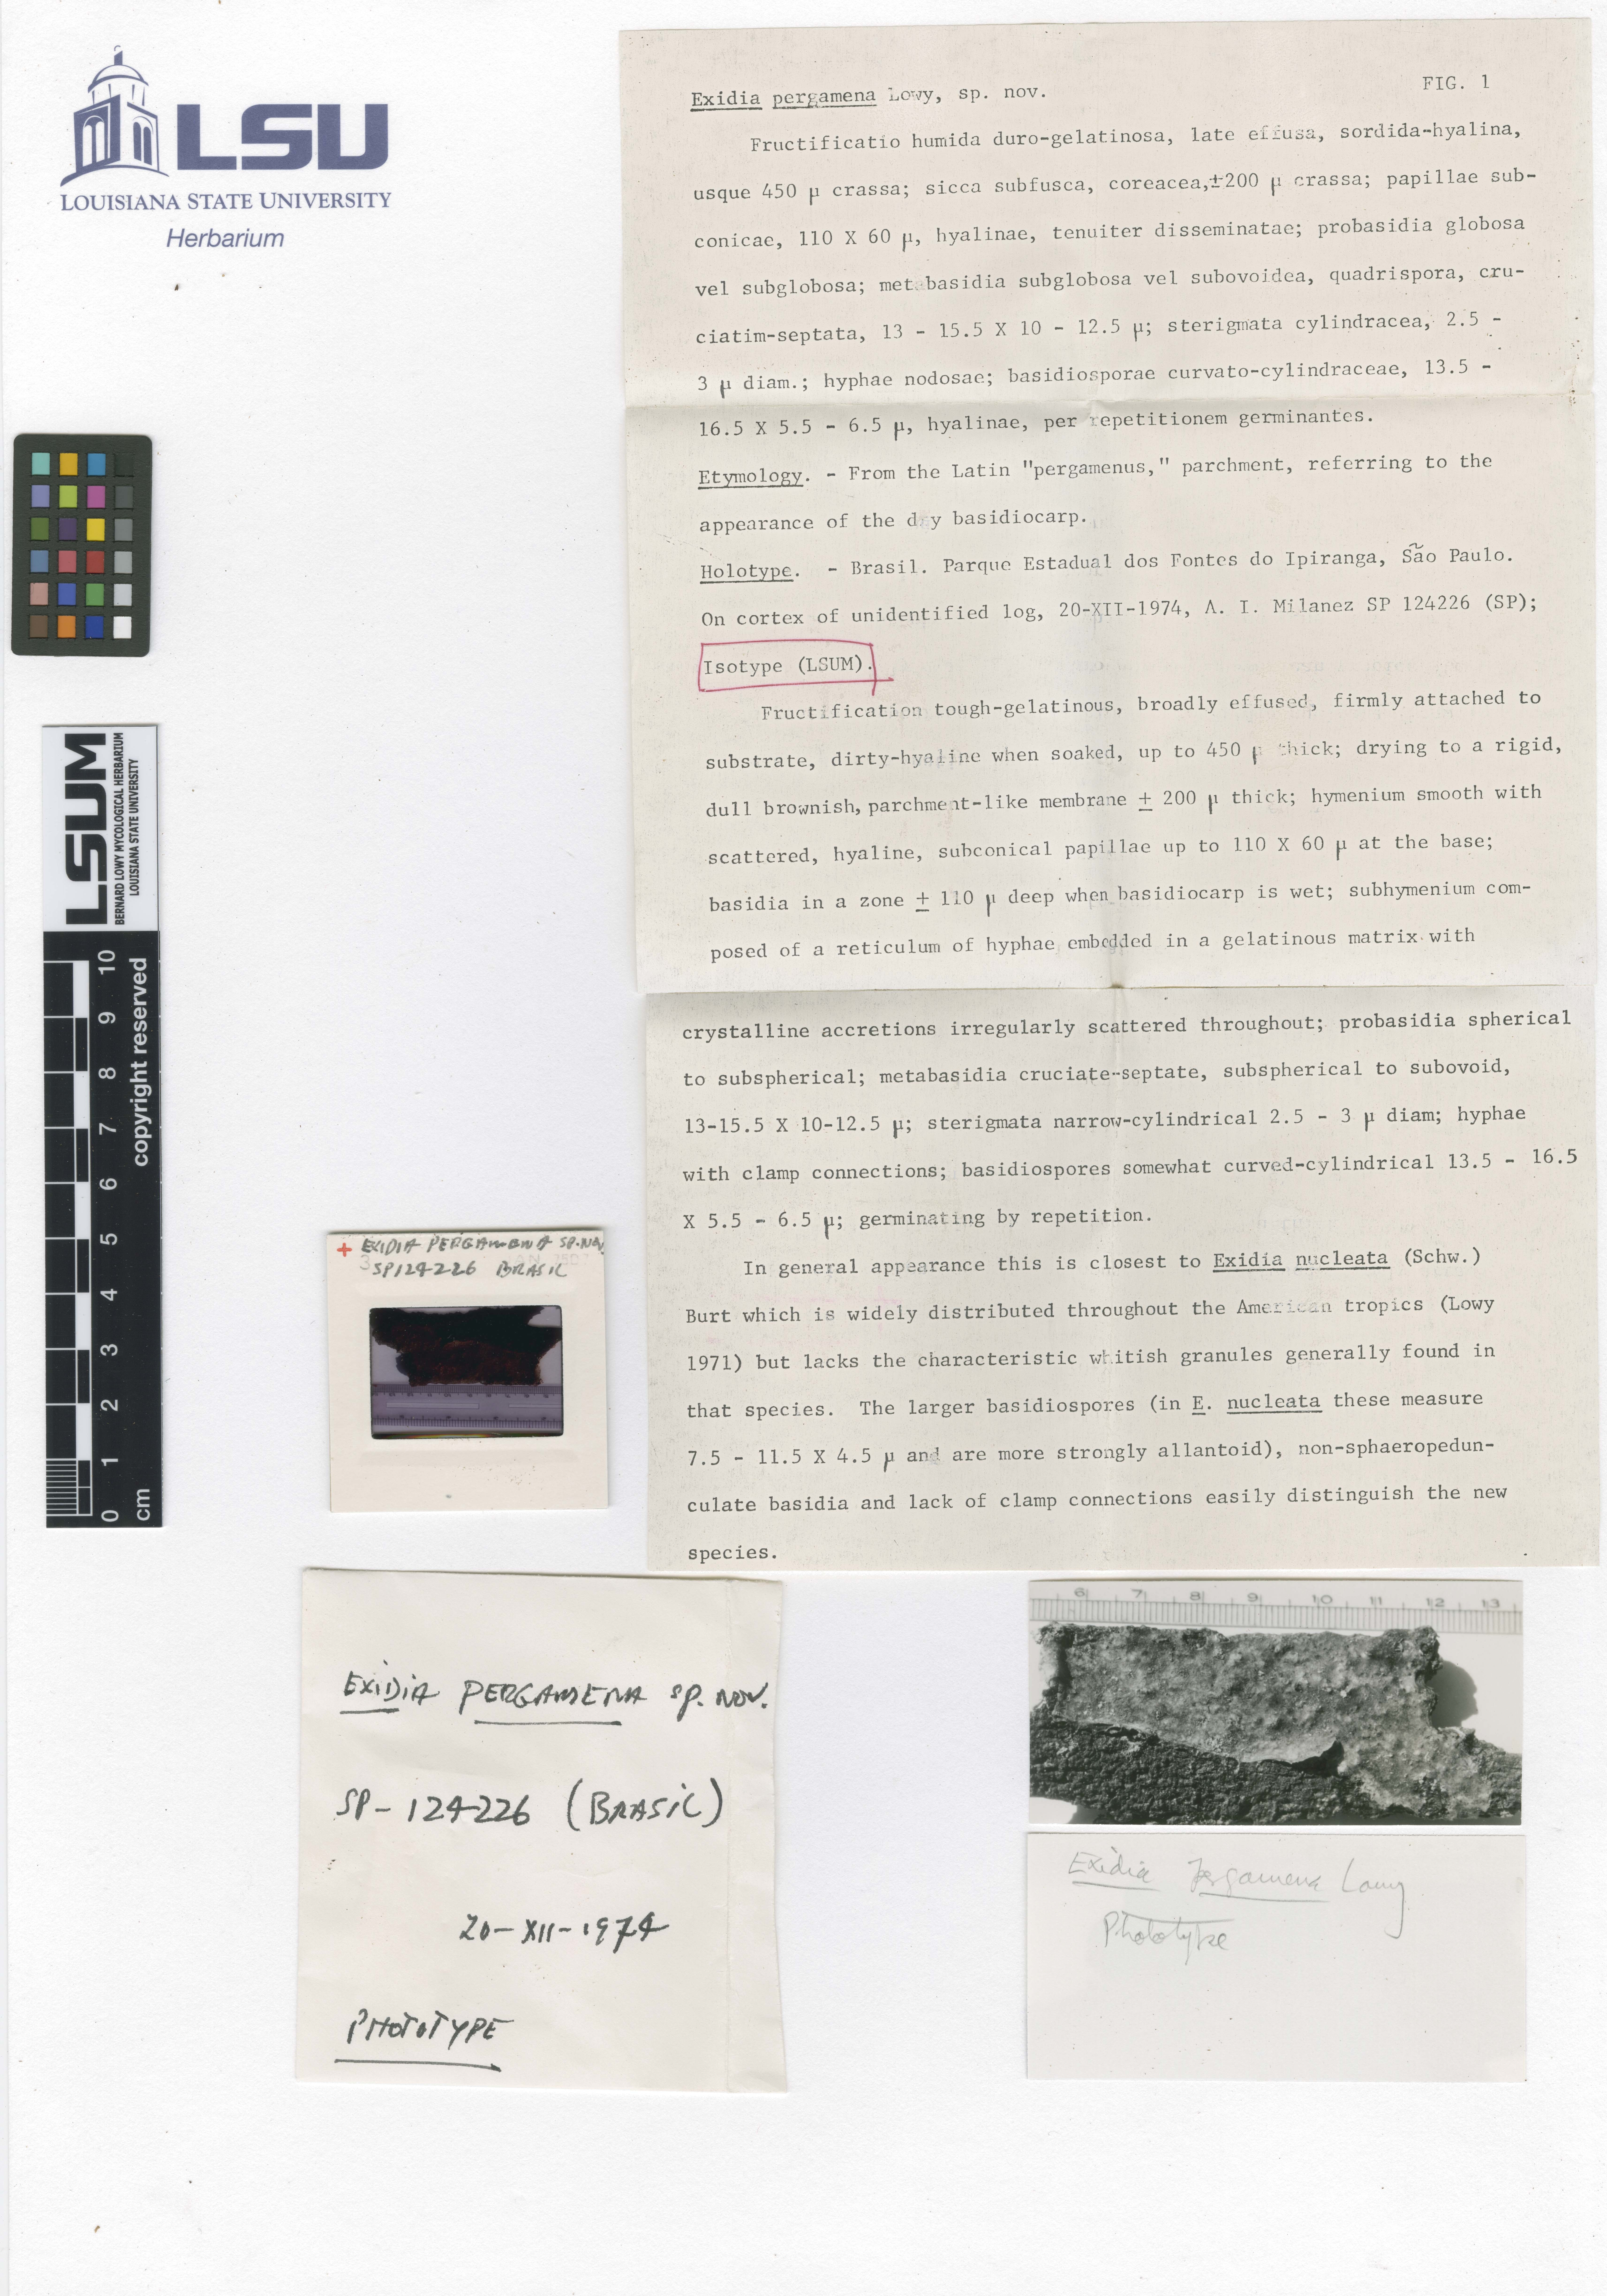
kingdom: Fungi
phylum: Basidiomycota
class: Agaricomycetes
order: Auriculariales
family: Auriculariaceae
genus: Exidia
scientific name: Exidia pergamena
